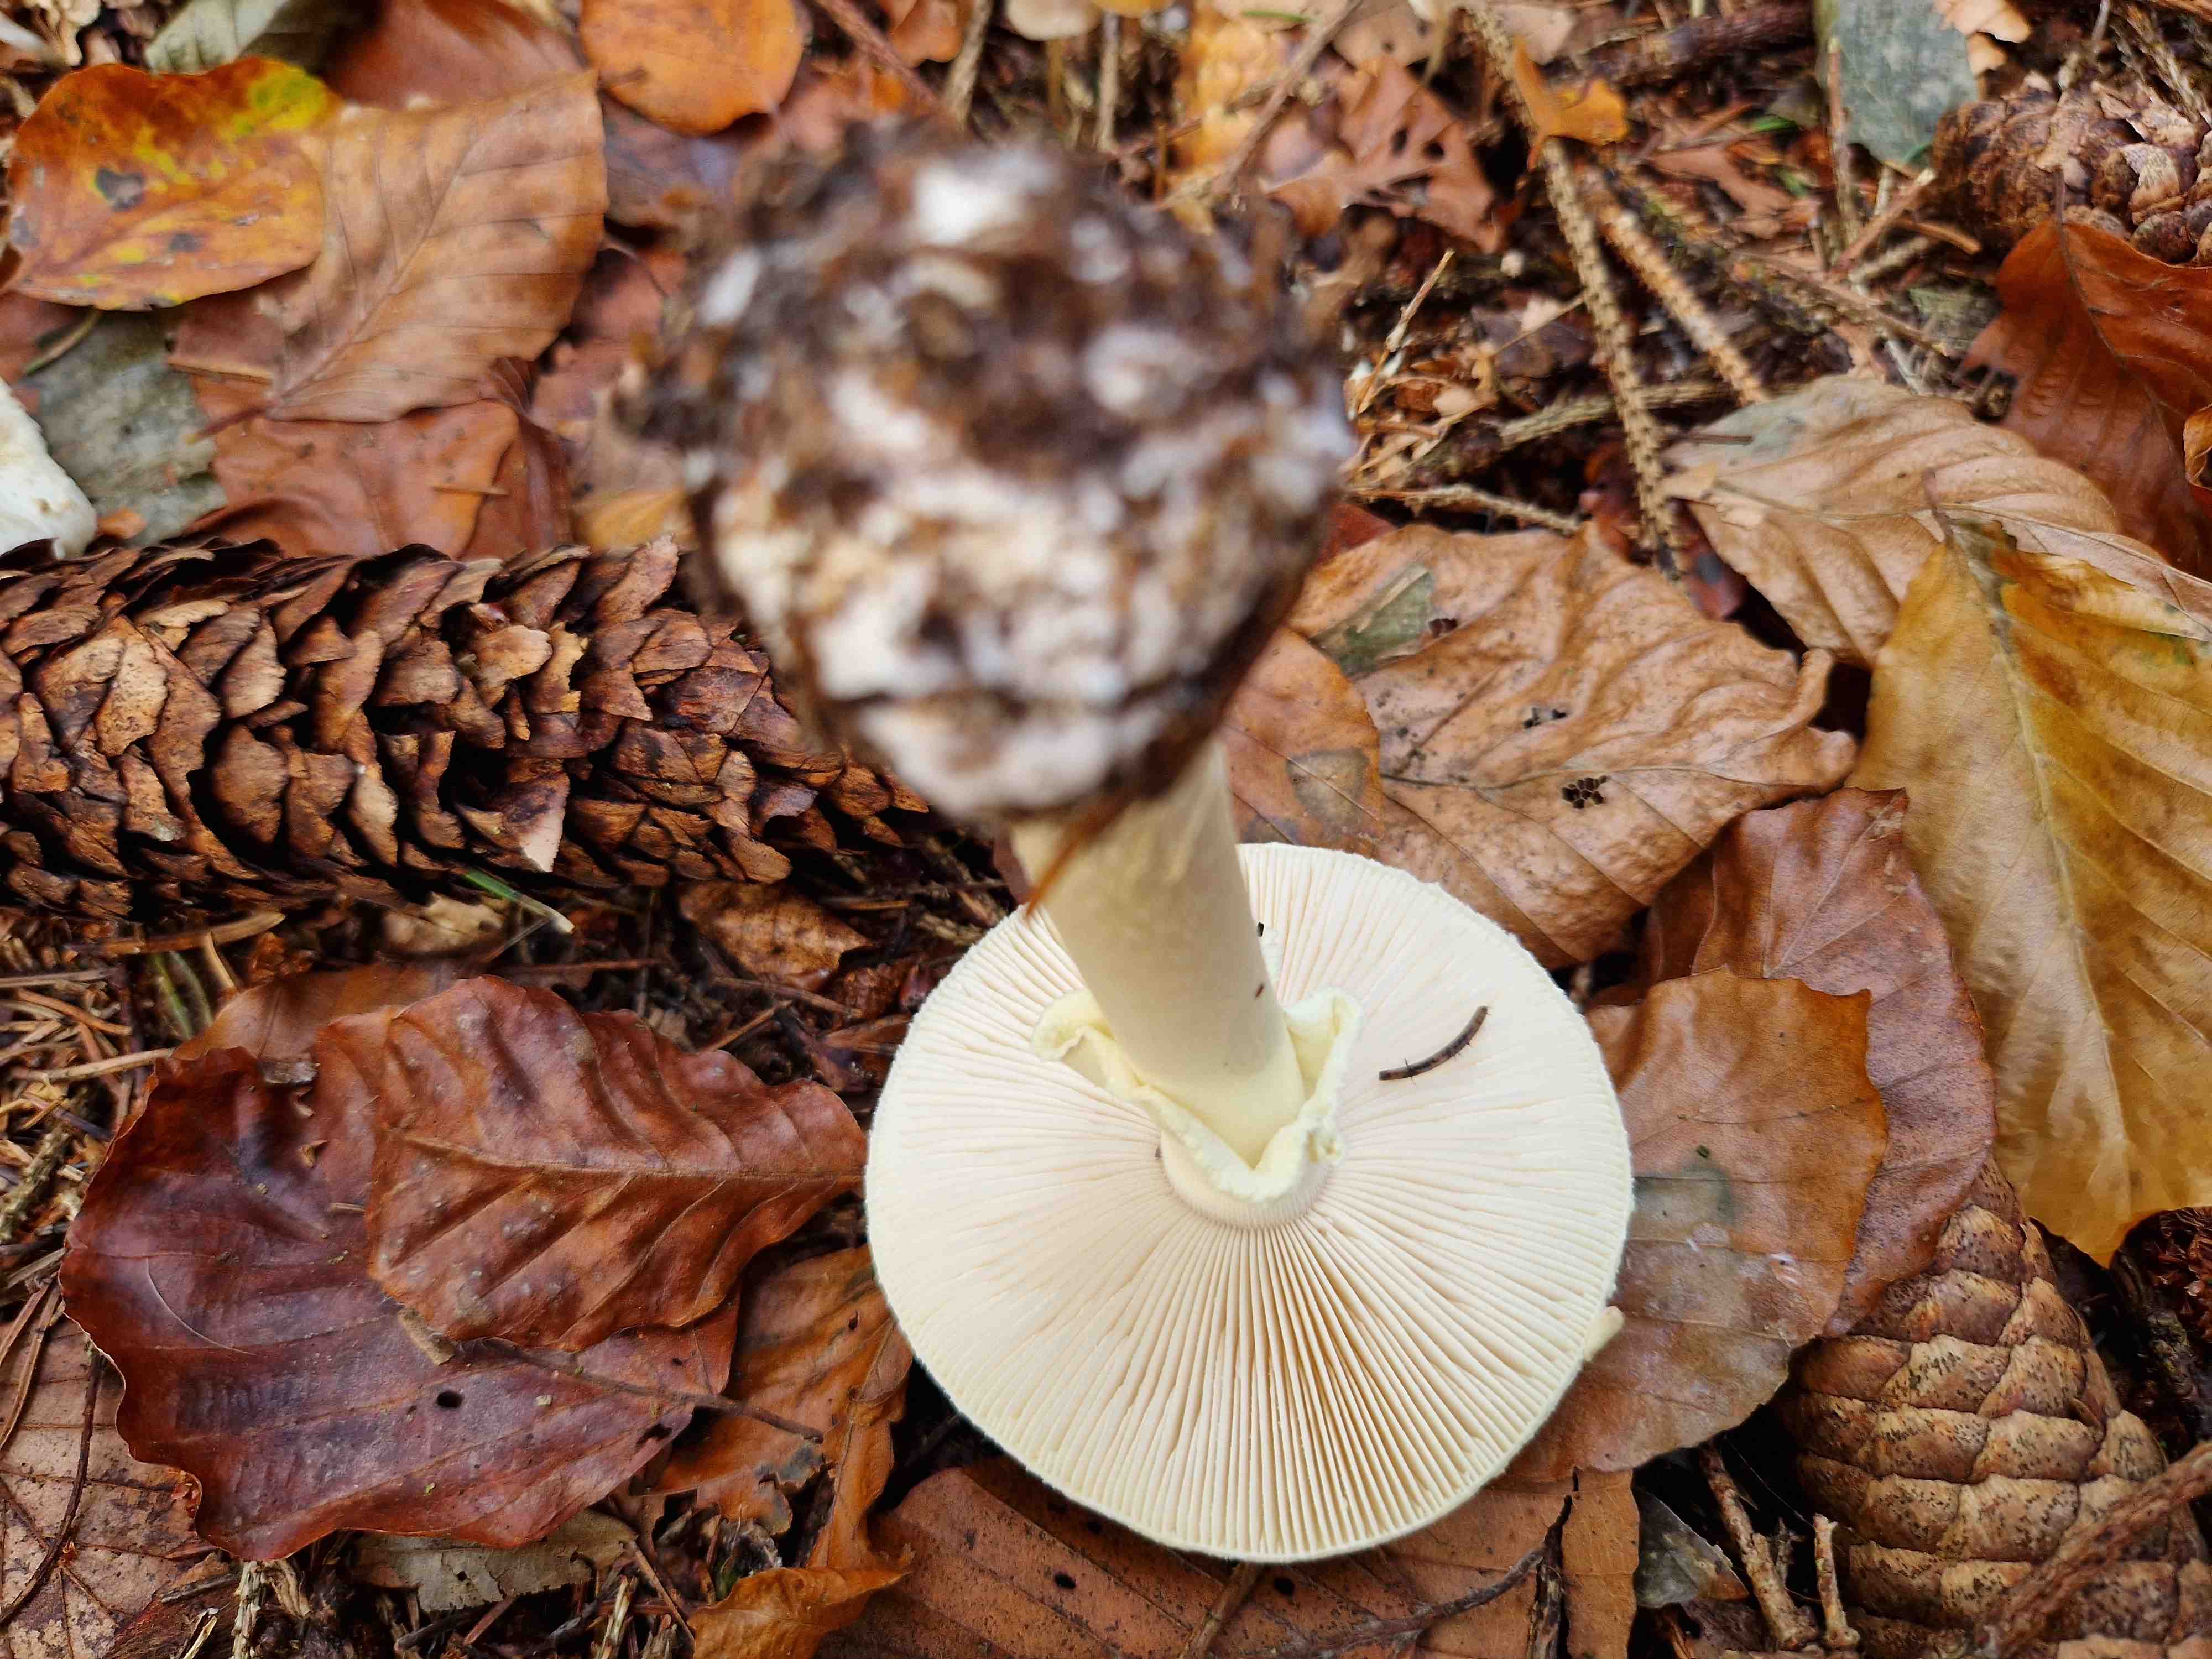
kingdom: Fungi
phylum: Basidiomycota
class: Agaricomycetes
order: Agaricales
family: Amanitaceae
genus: Amanita
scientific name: Amanita citrina
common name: kugleknoldet fluesvamp
